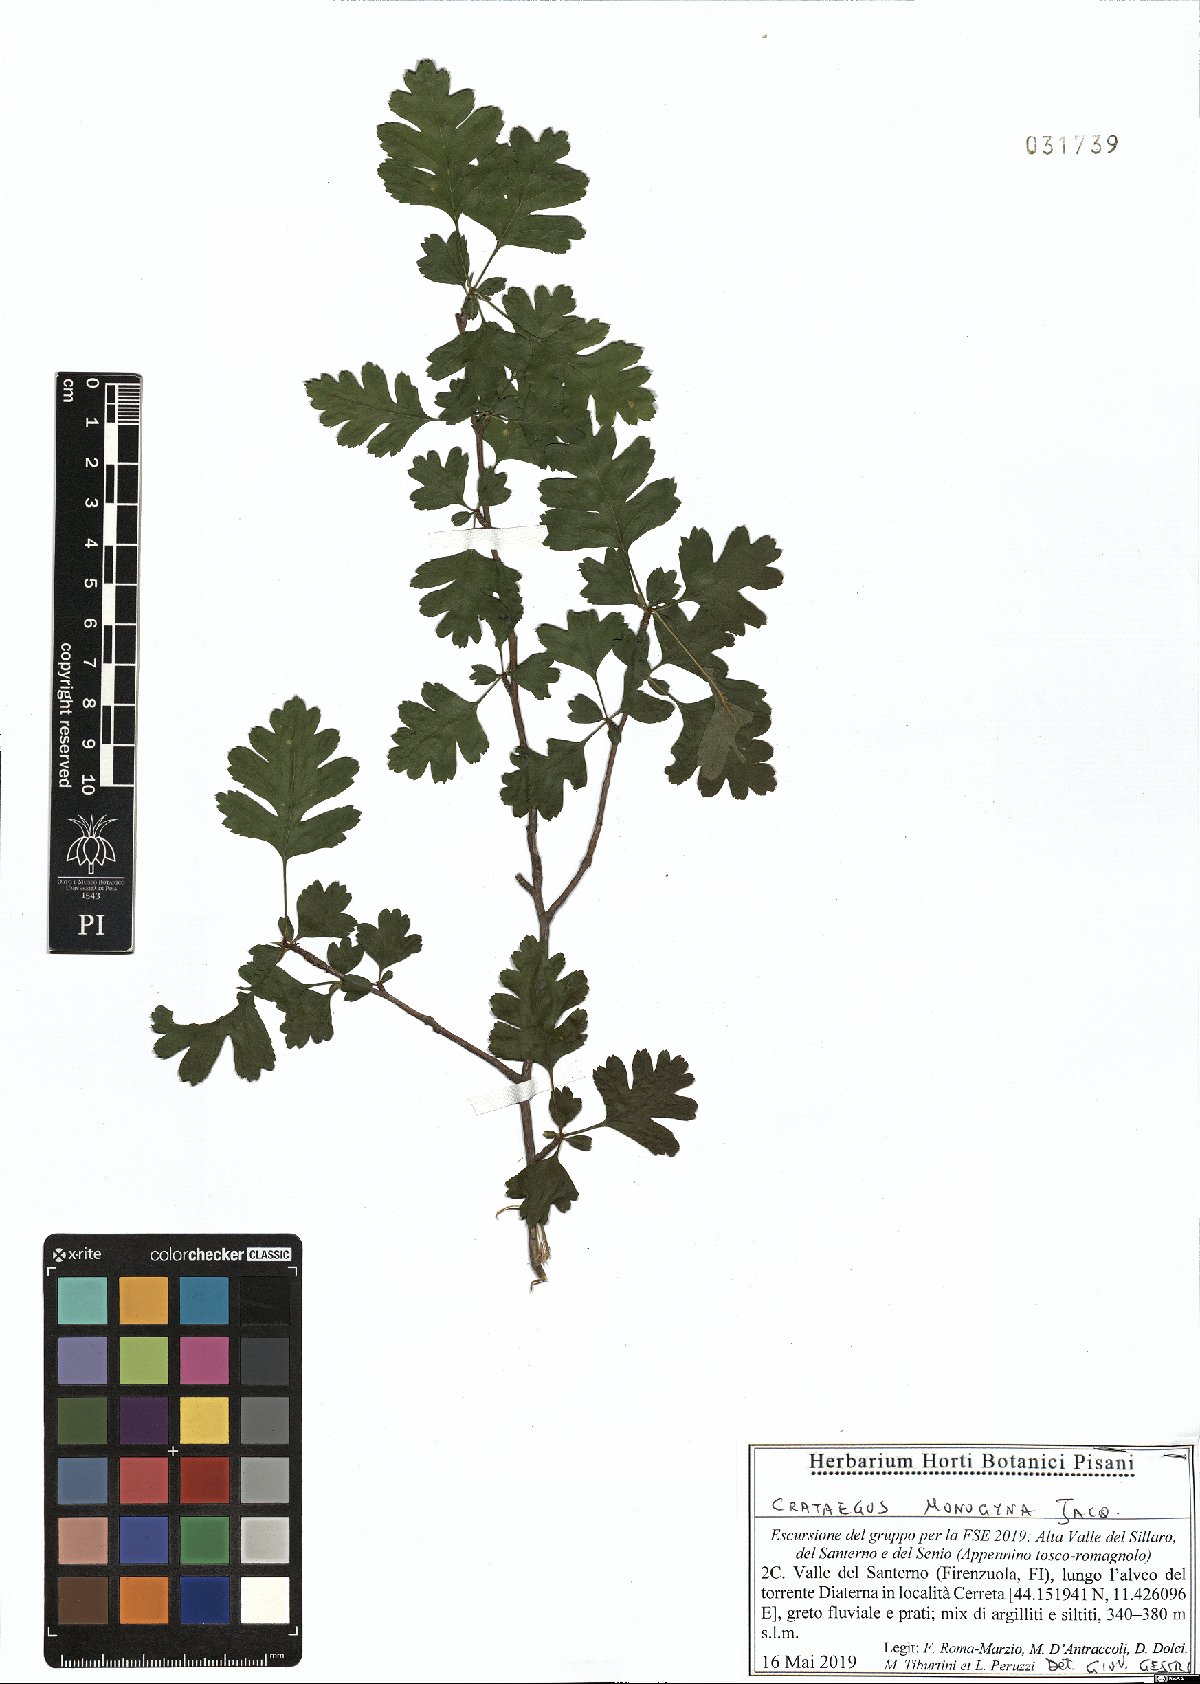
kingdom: Plantae
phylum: Tracheophyta
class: Magnoliopsida
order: Rosales
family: Rosaceae
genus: Crataegus
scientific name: Crataegus monogyna
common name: Hawthorn
